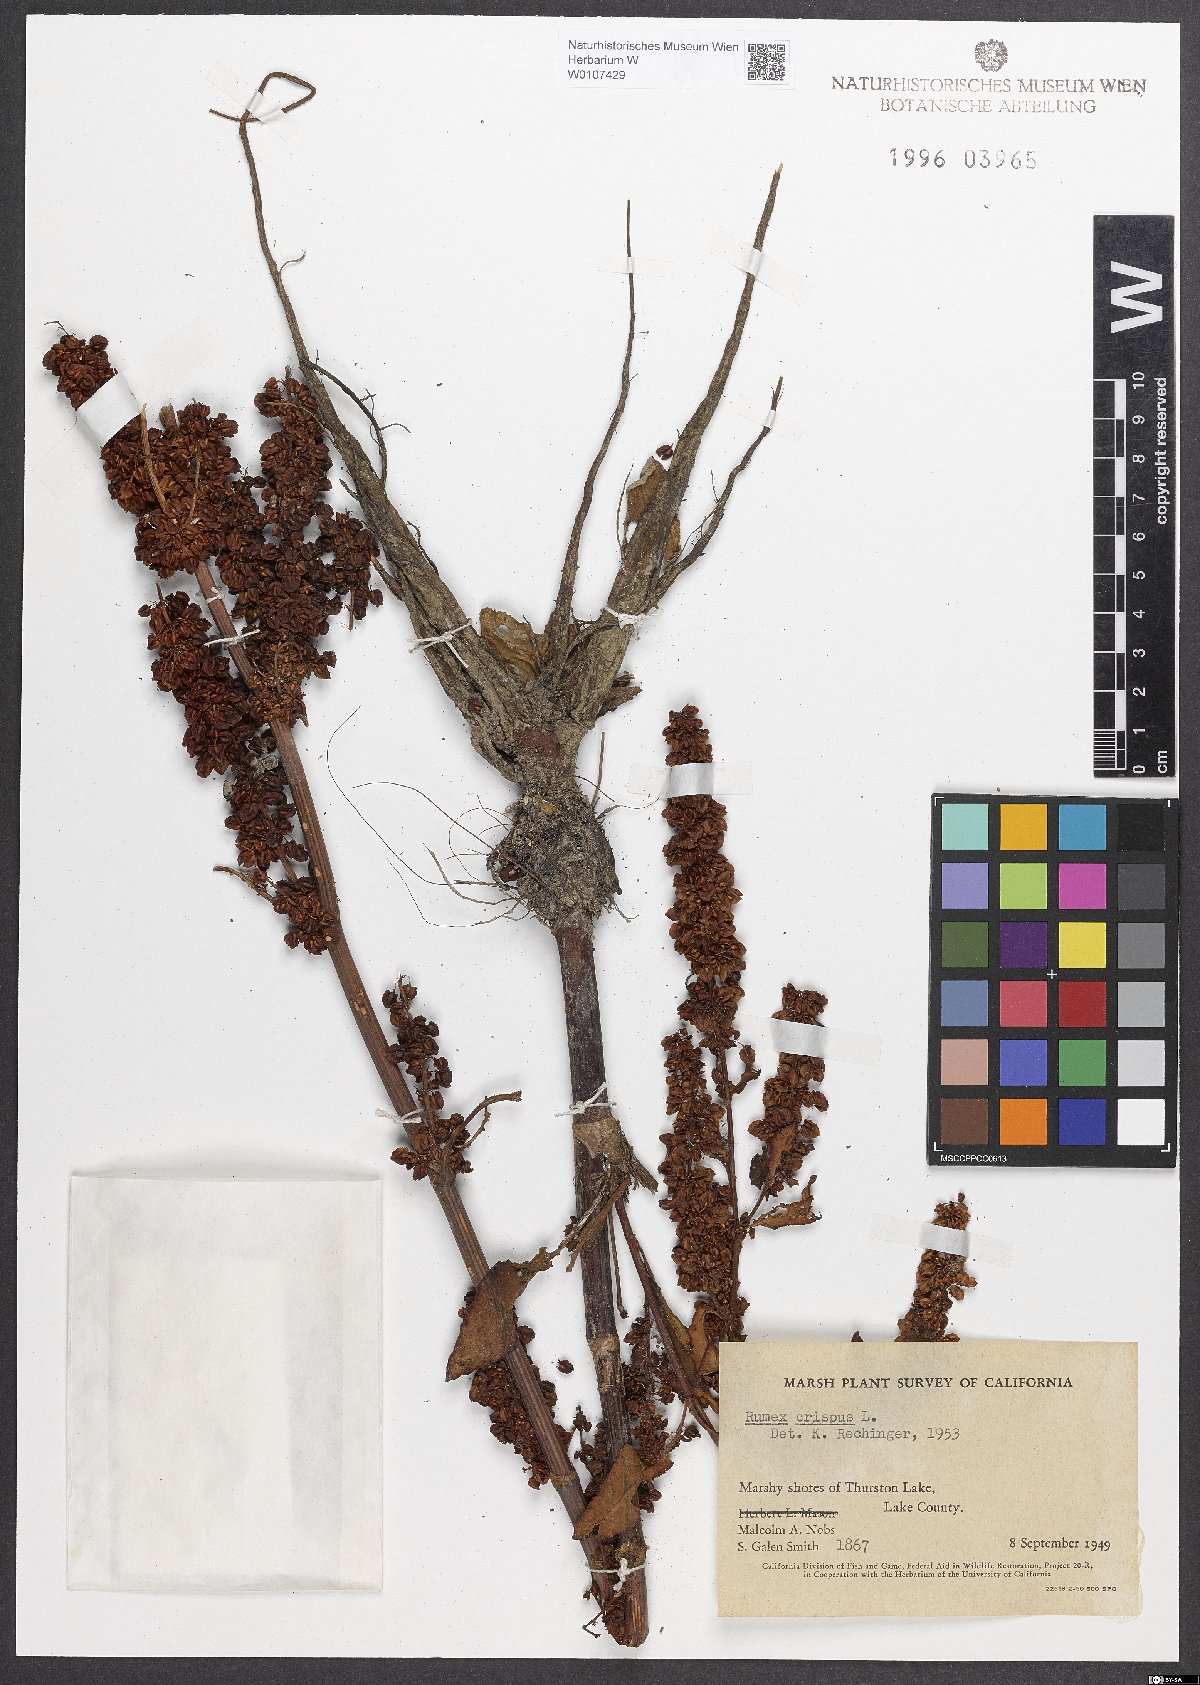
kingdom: Plantae
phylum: Tracheophyta
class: Magnoliopsida
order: Caryophyllales
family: Polygonaceae
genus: Rumex
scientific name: Rumex crispus
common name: Curled dock
